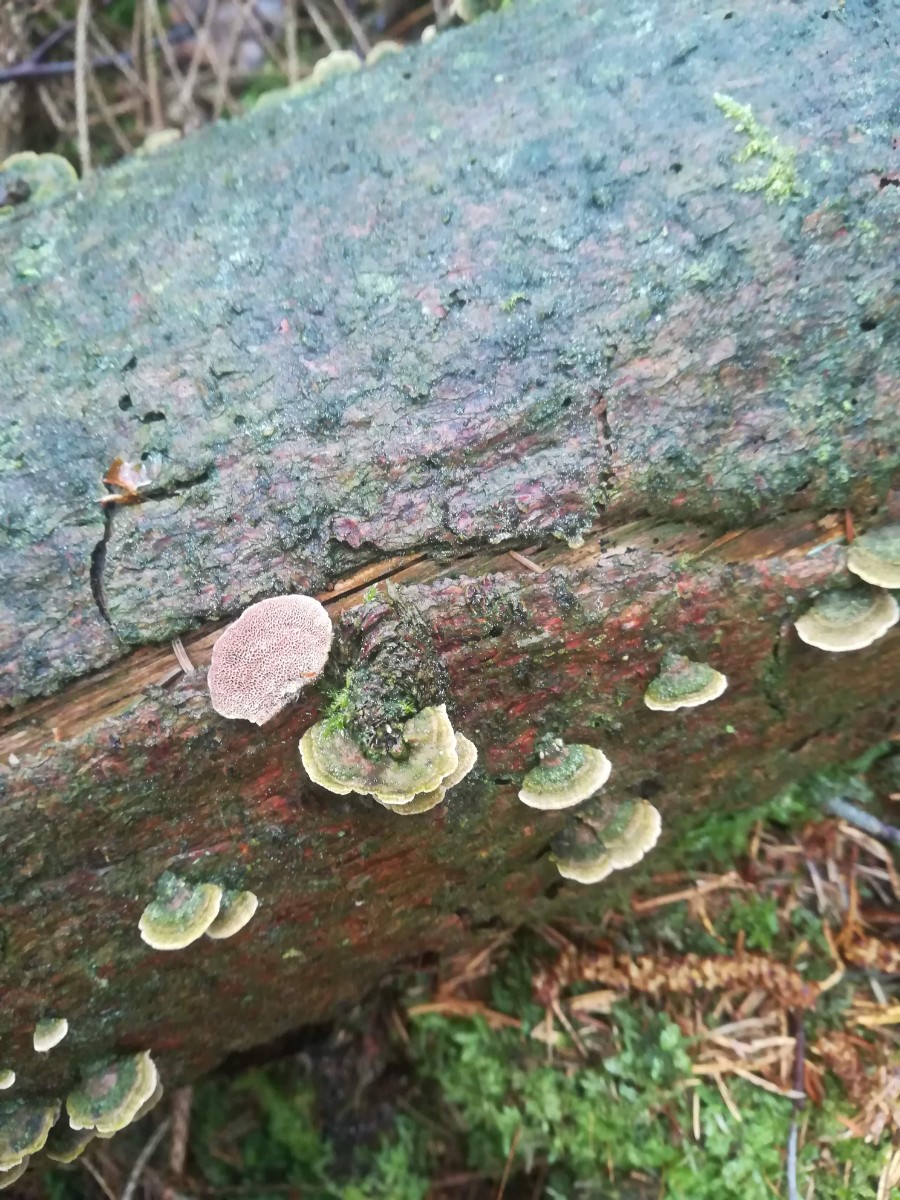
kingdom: Fungi
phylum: Basidiomycota
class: Agaricomycetes
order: Hymenochaetales
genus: Trichaptum
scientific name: Trichaptum abietinum
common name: almindelig violporesvamp
